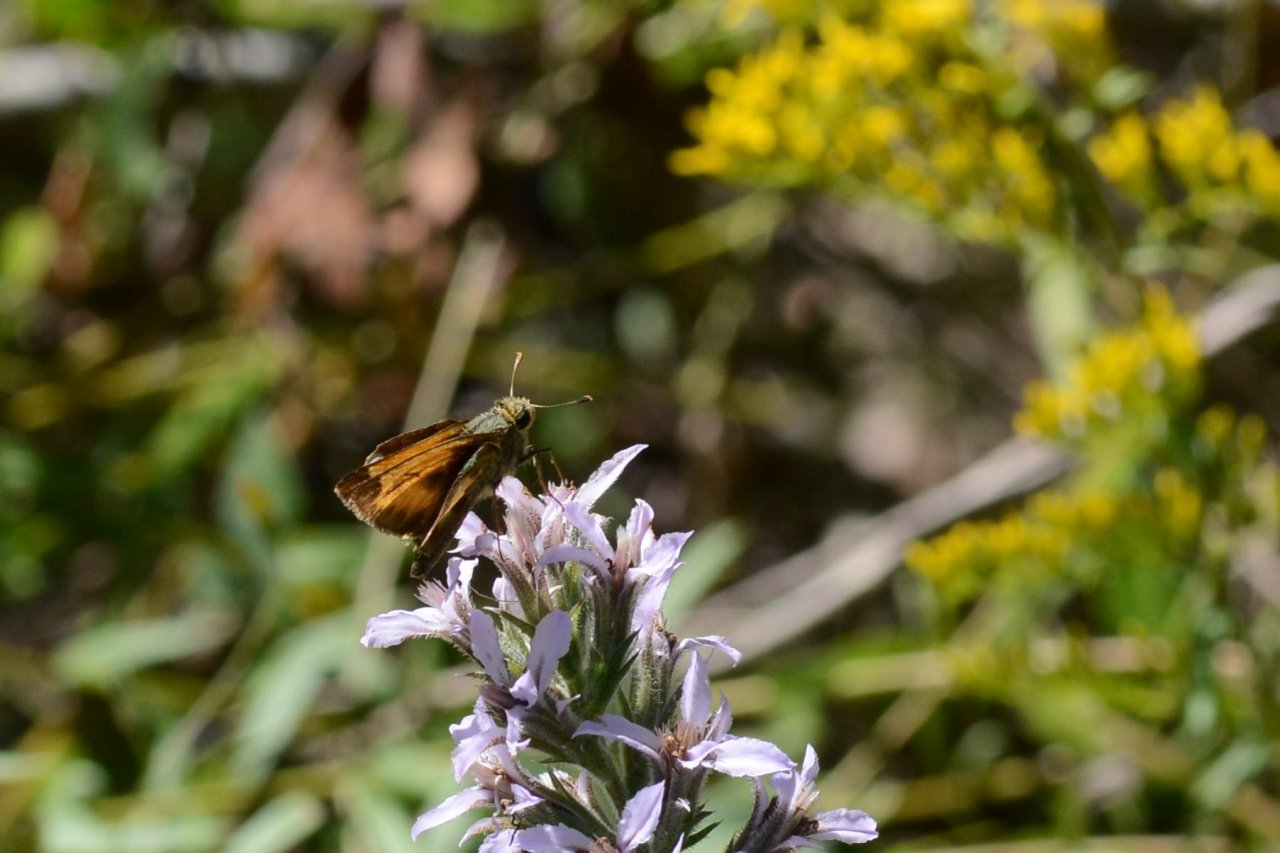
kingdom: Animalia
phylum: Arthropoda
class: Insecta
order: Lepidoptera
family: Hesperiidae
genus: Hylephila
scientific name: Hylephila phyleus
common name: Fiery Skipper
